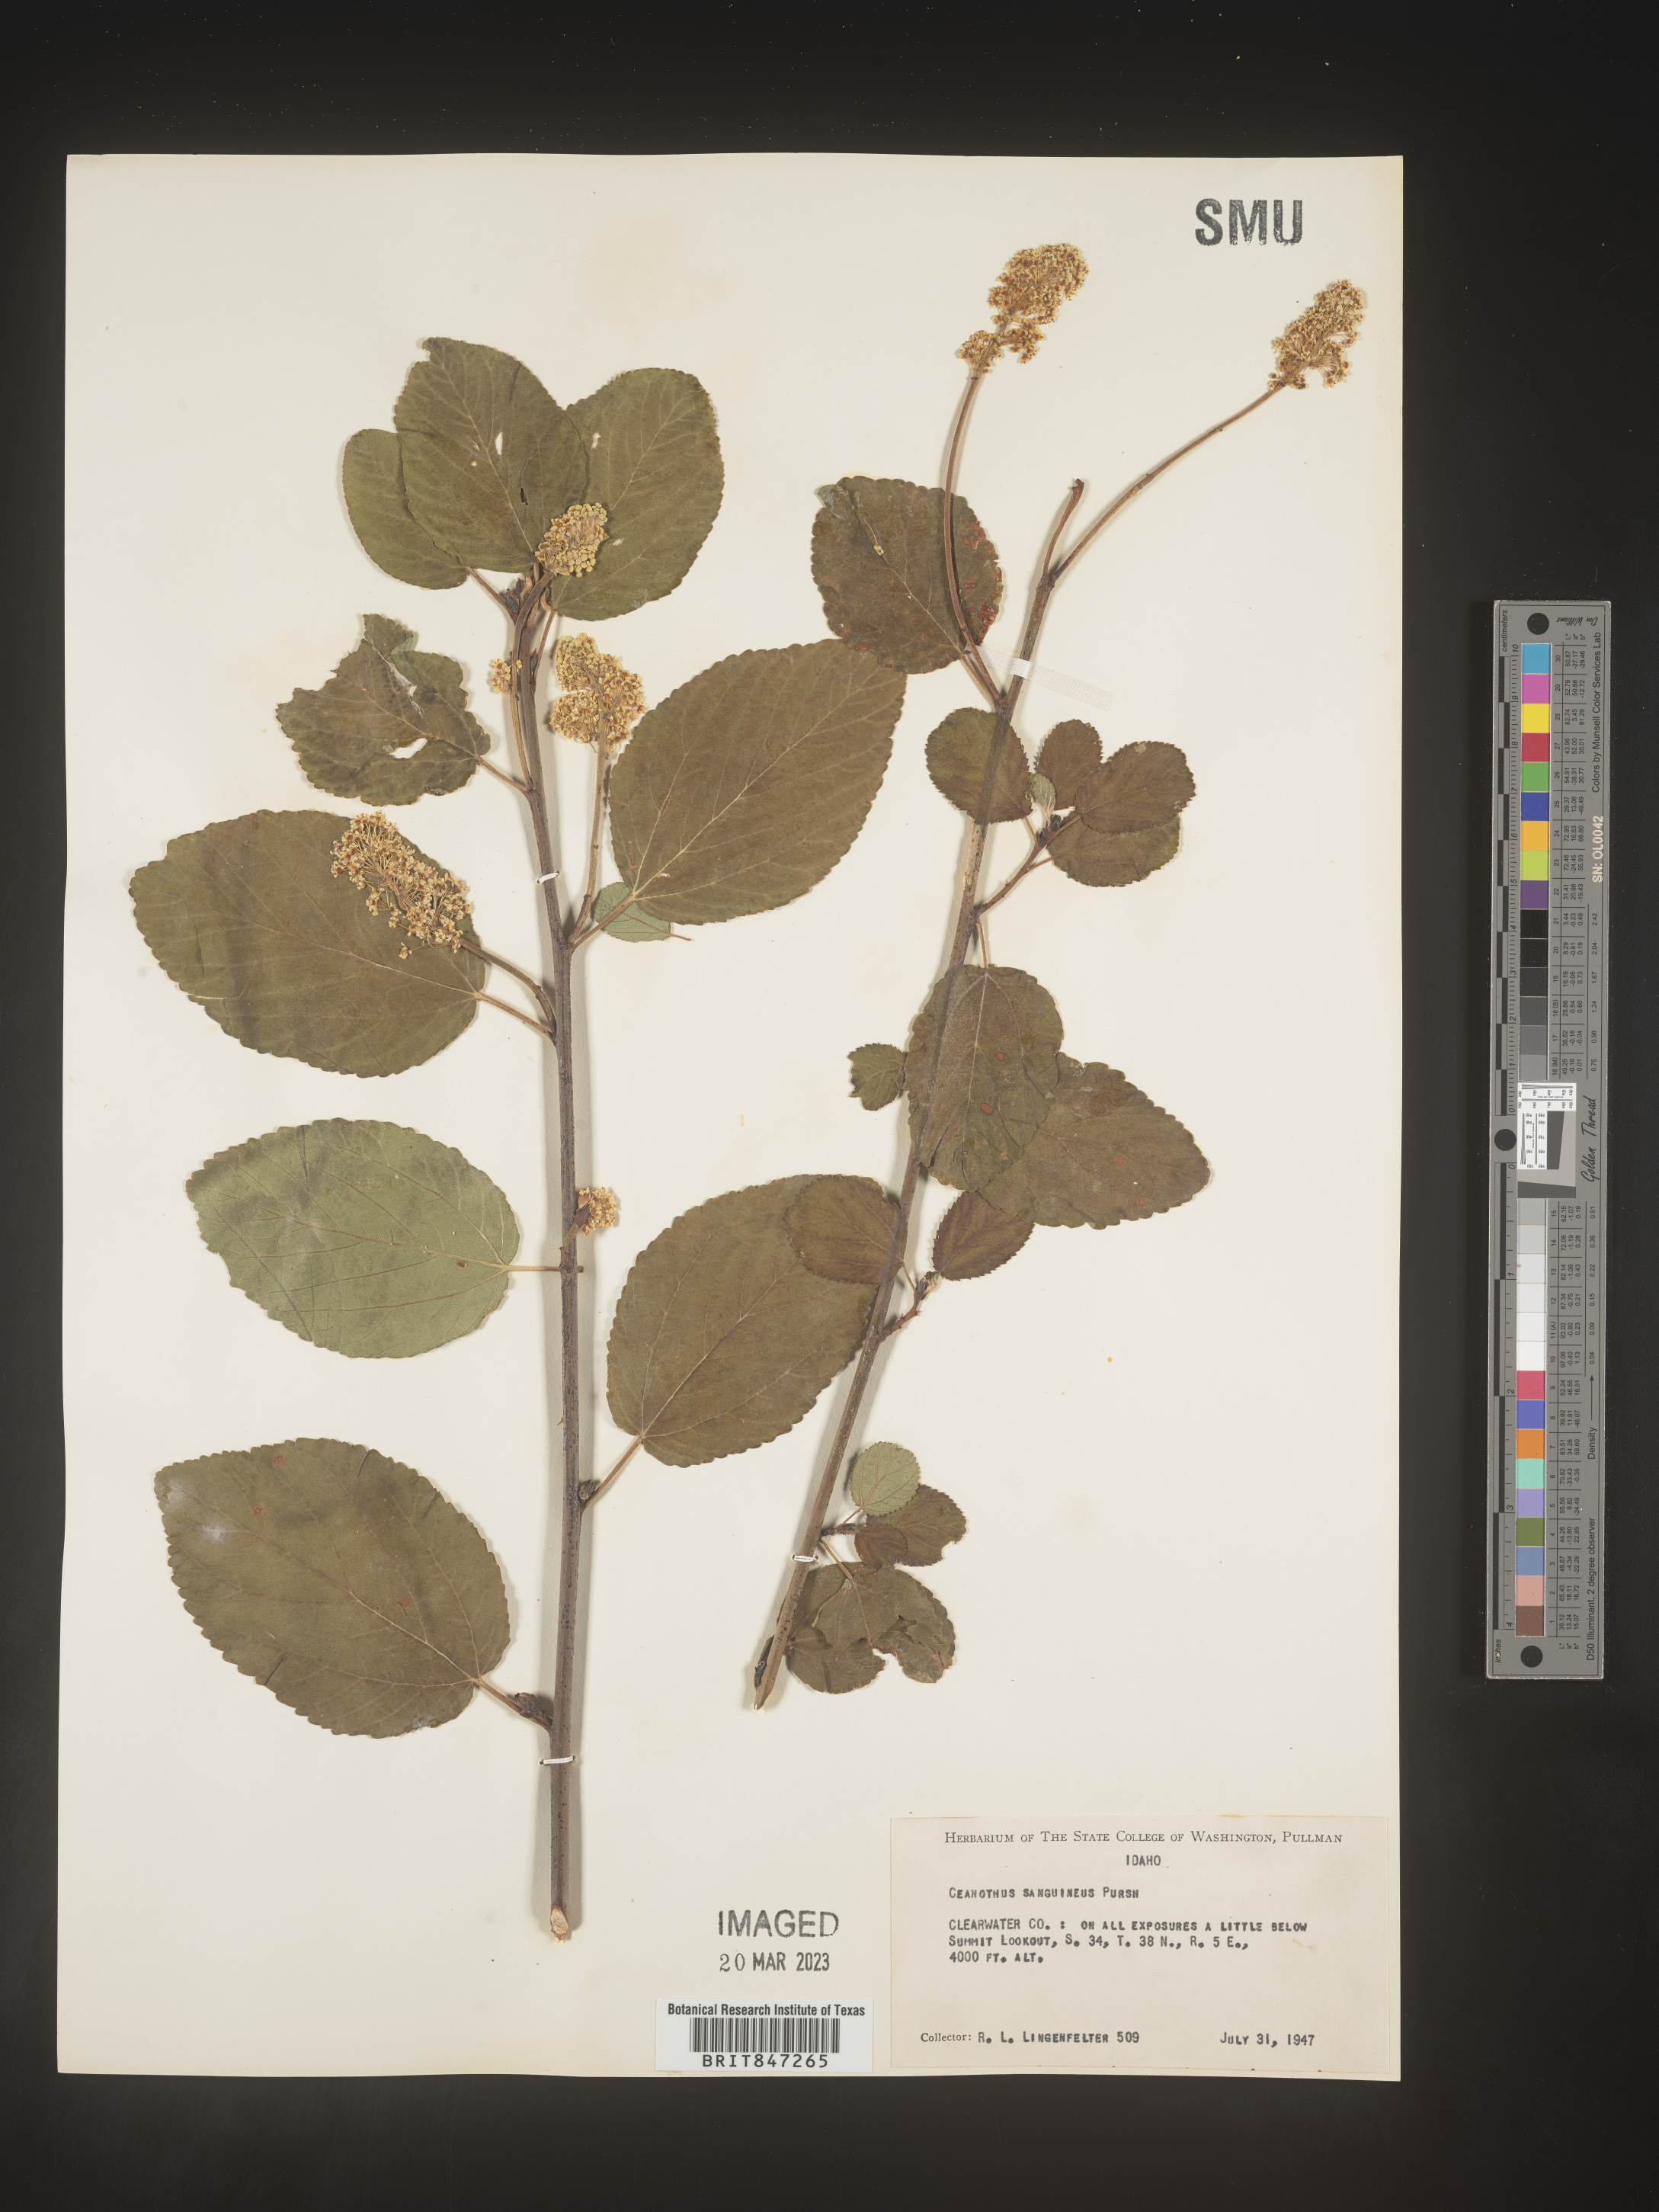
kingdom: Plantae
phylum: Tracheophyta
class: Magnoliopsida
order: Rosales
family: Rhamnaceae
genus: Ceanothus
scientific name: Ceanothus
